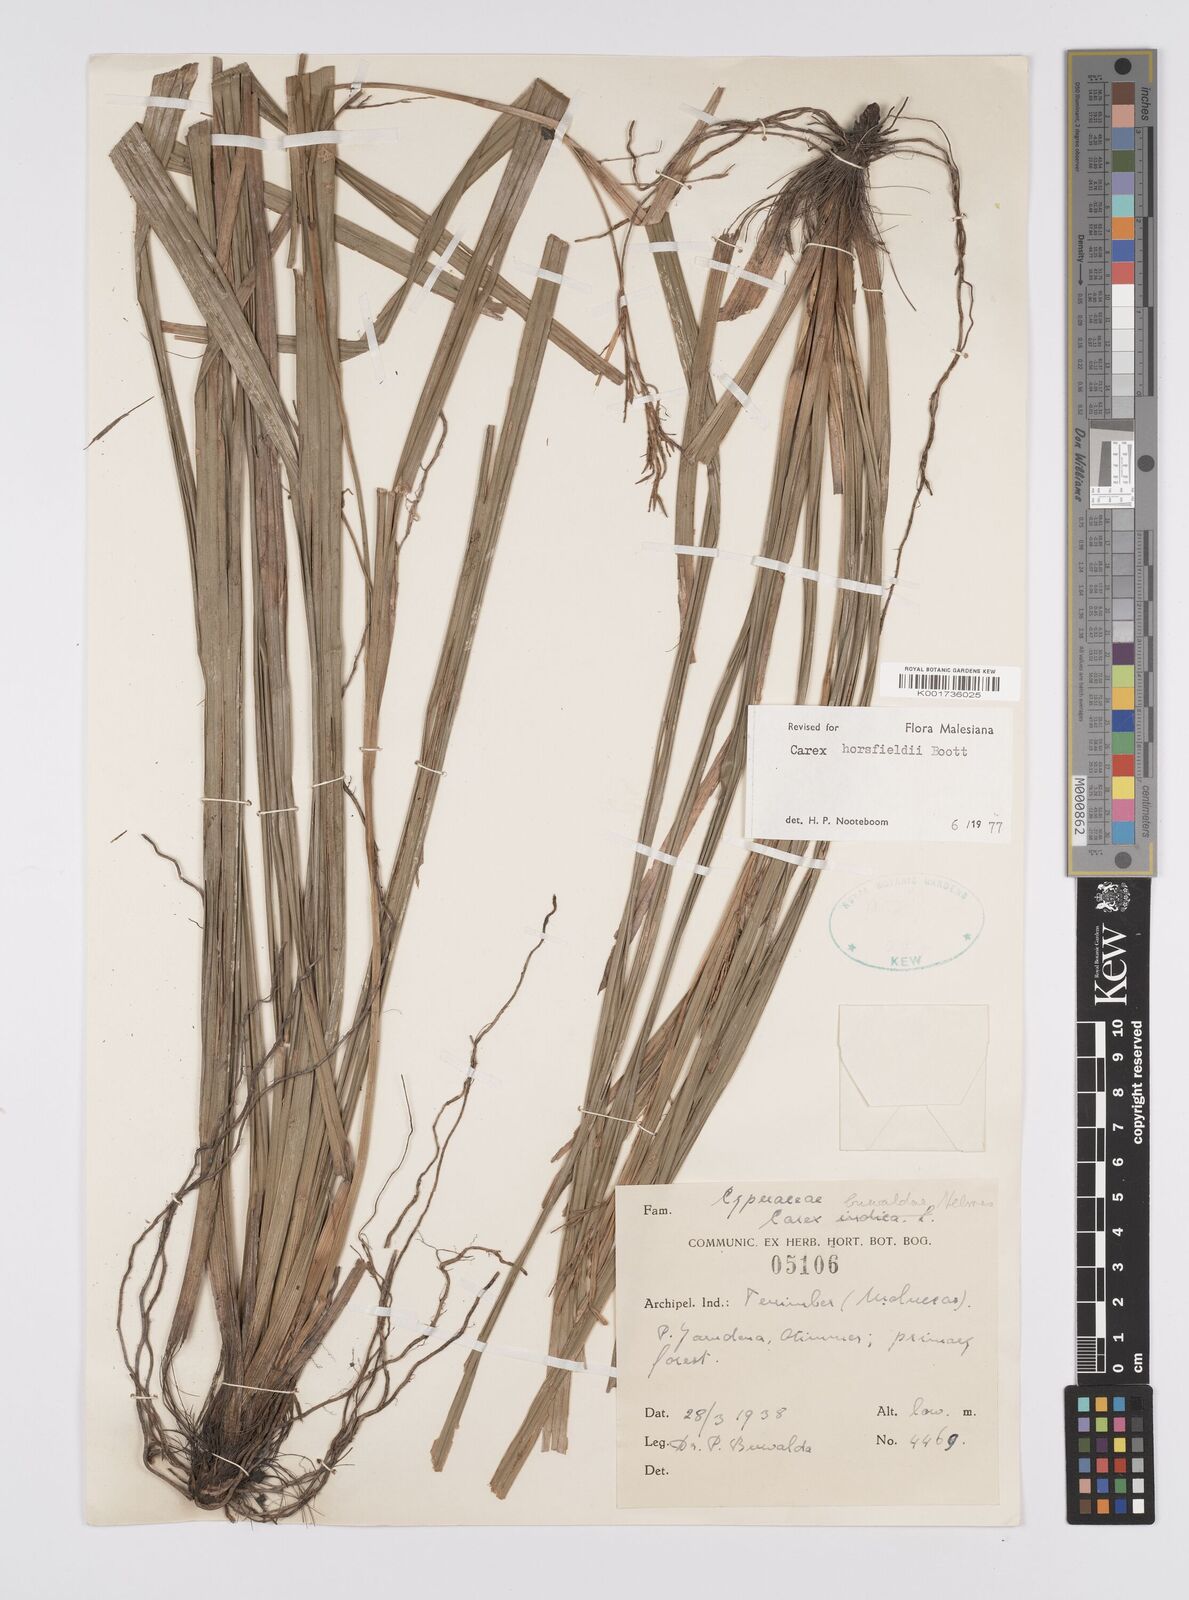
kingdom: Plantae
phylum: Tracheophyta
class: Liliopsida
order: Poales
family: Cyperaceae
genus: Carex
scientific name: Carex horsfieldii
